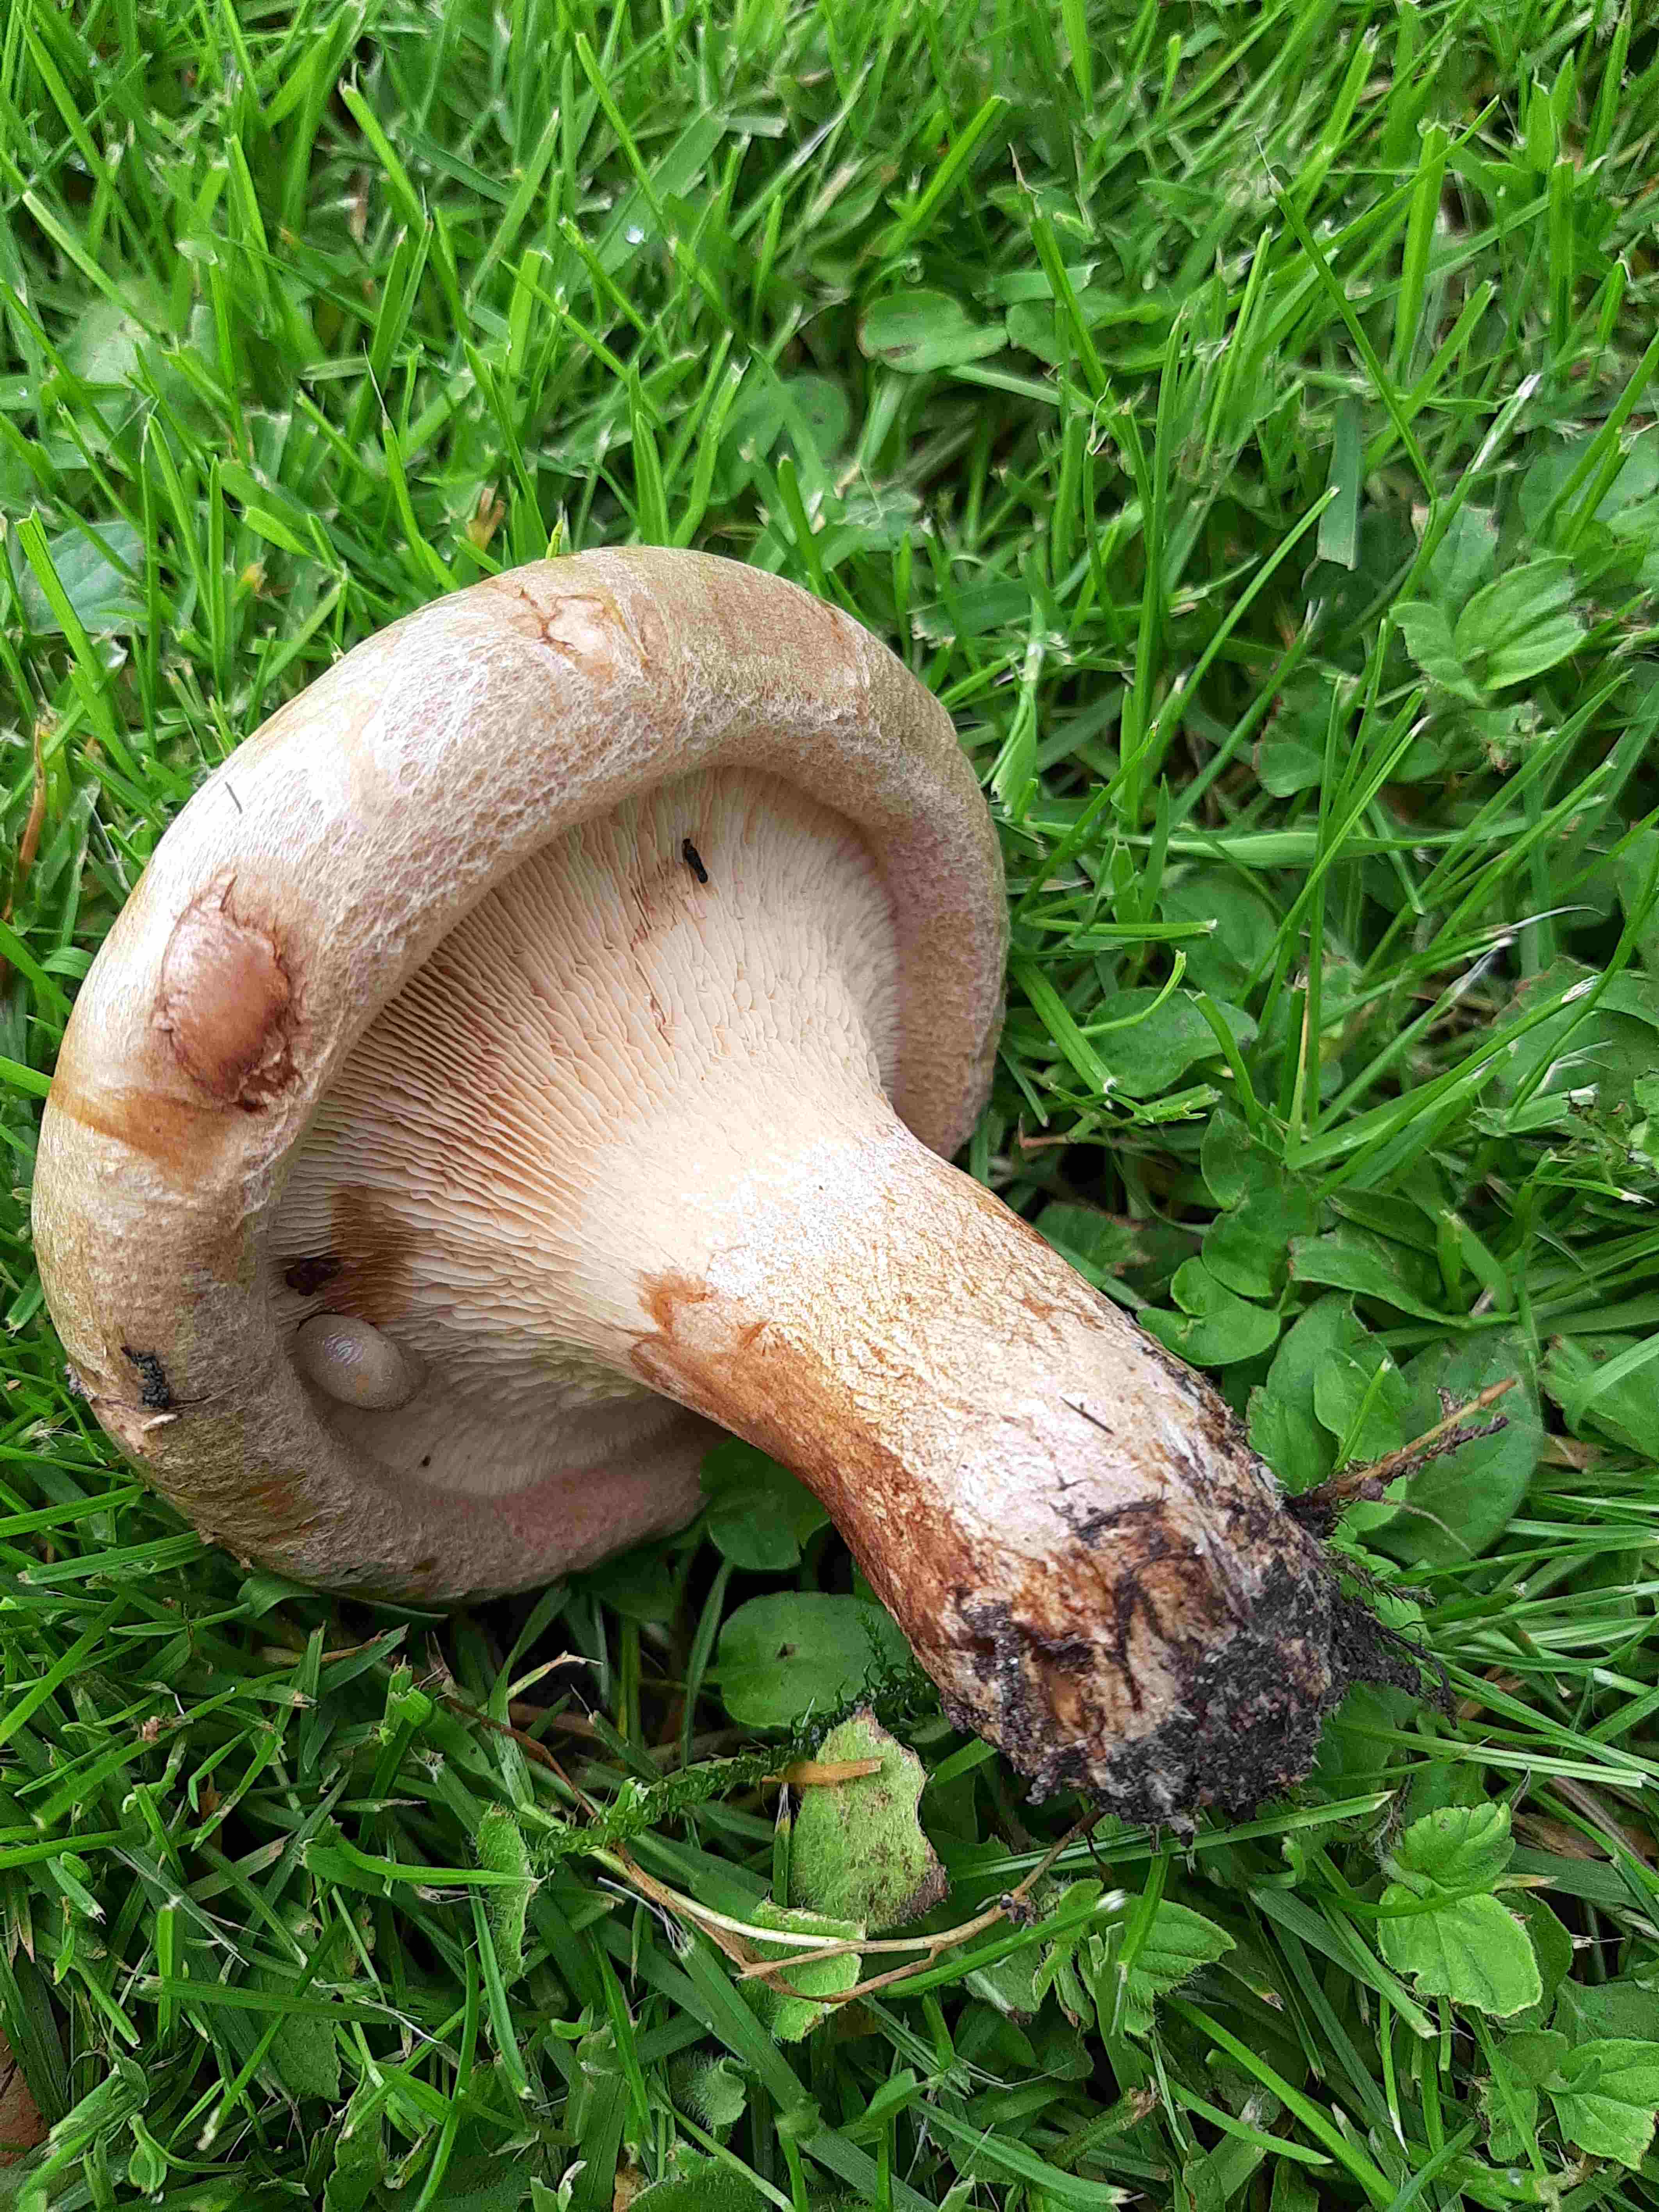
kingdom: Fungi
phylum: Basidiomycota
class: Agaricomycetes
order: Boletales
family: Paxillaceae
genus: Paxillus
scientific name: Paxillus involutus
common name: almindelig netbladhat
